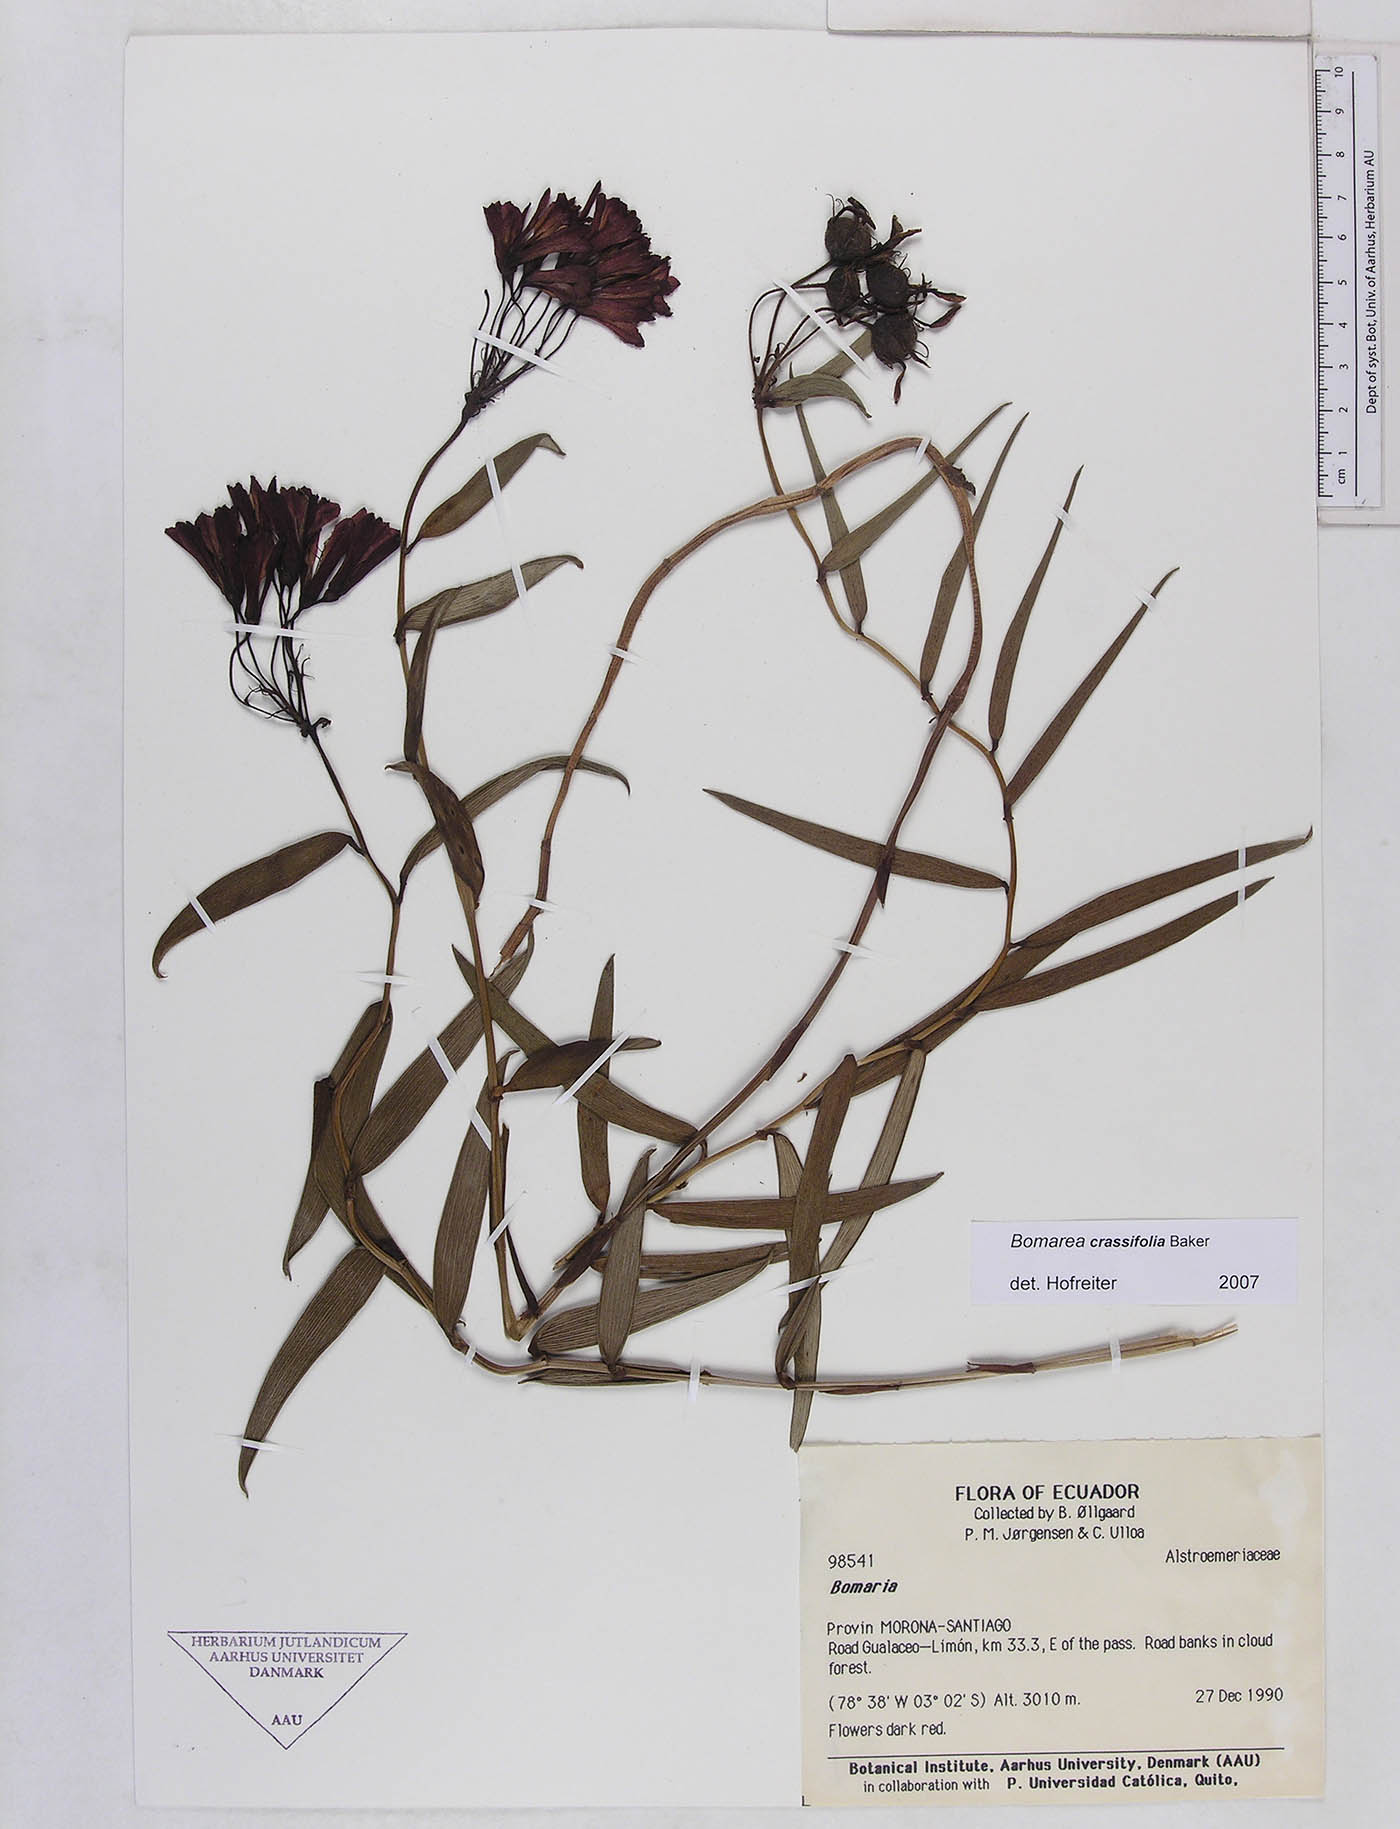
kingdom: Plantae
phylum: Tracheophyta
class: Liliopsida
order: Liliales
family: Alstroemeriaceae
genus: Bomarea
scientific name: Bomarea crassifolia
